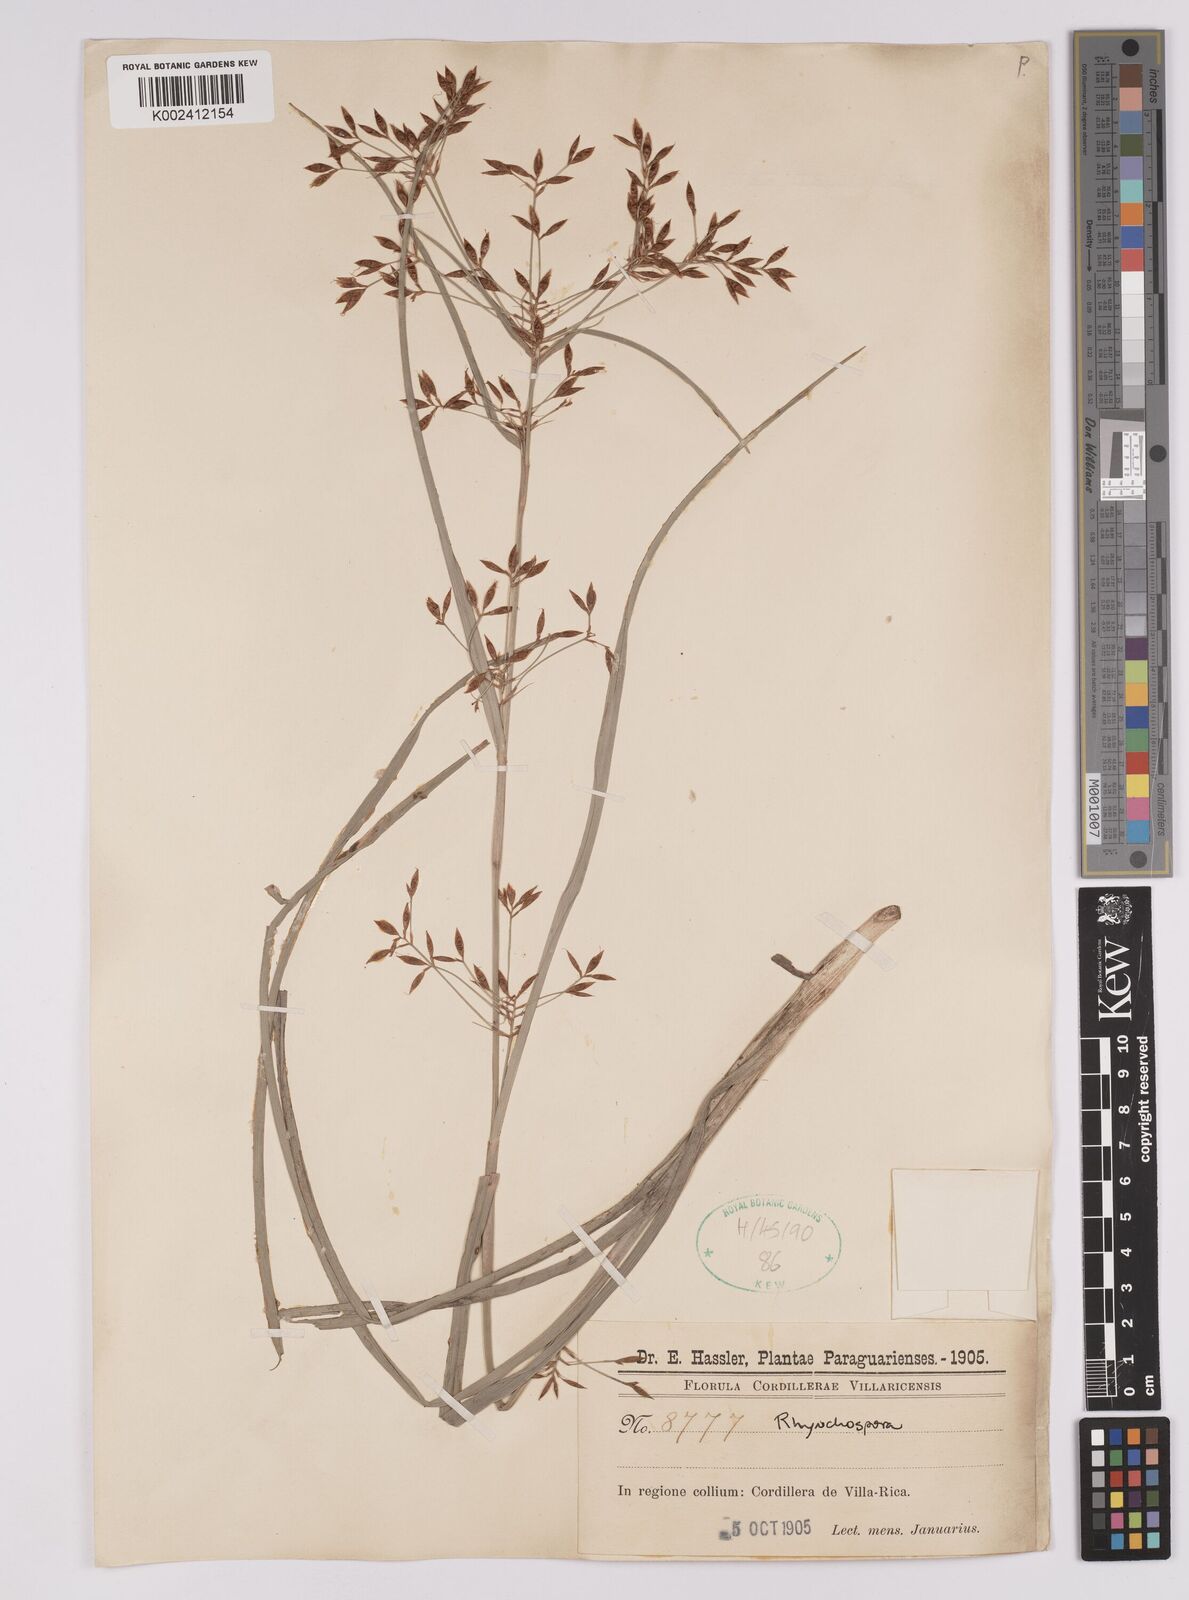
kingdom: Plantae
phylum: Tracheophyta
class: Liliopsida
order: Poales
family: Cyperaceae
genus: Rhynchospora
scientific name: Rhynchospora
